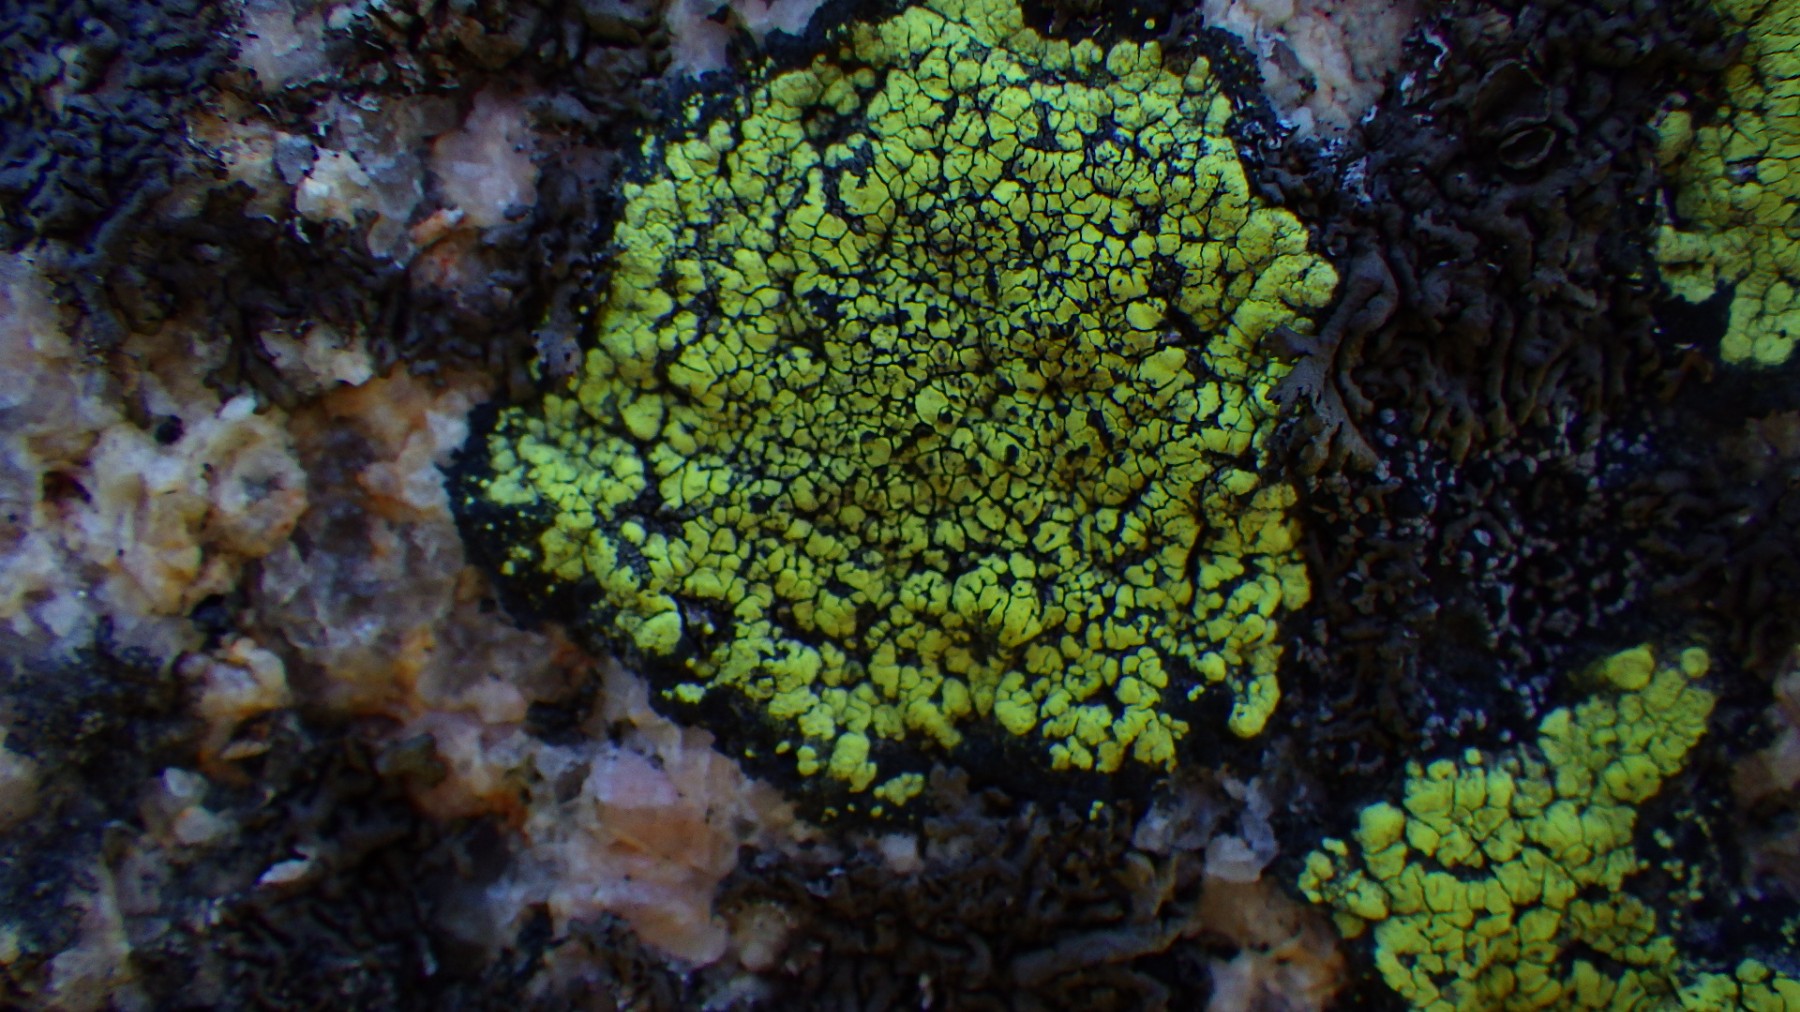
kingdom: Fungi
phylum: Ascomycota
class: Lecanoromycetes
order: Rhizocarpales
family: Rhizocarpaceae
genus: Rhizocarpon
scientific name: Rhizocarpon geographicum
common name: gulgrøn landkortlav
